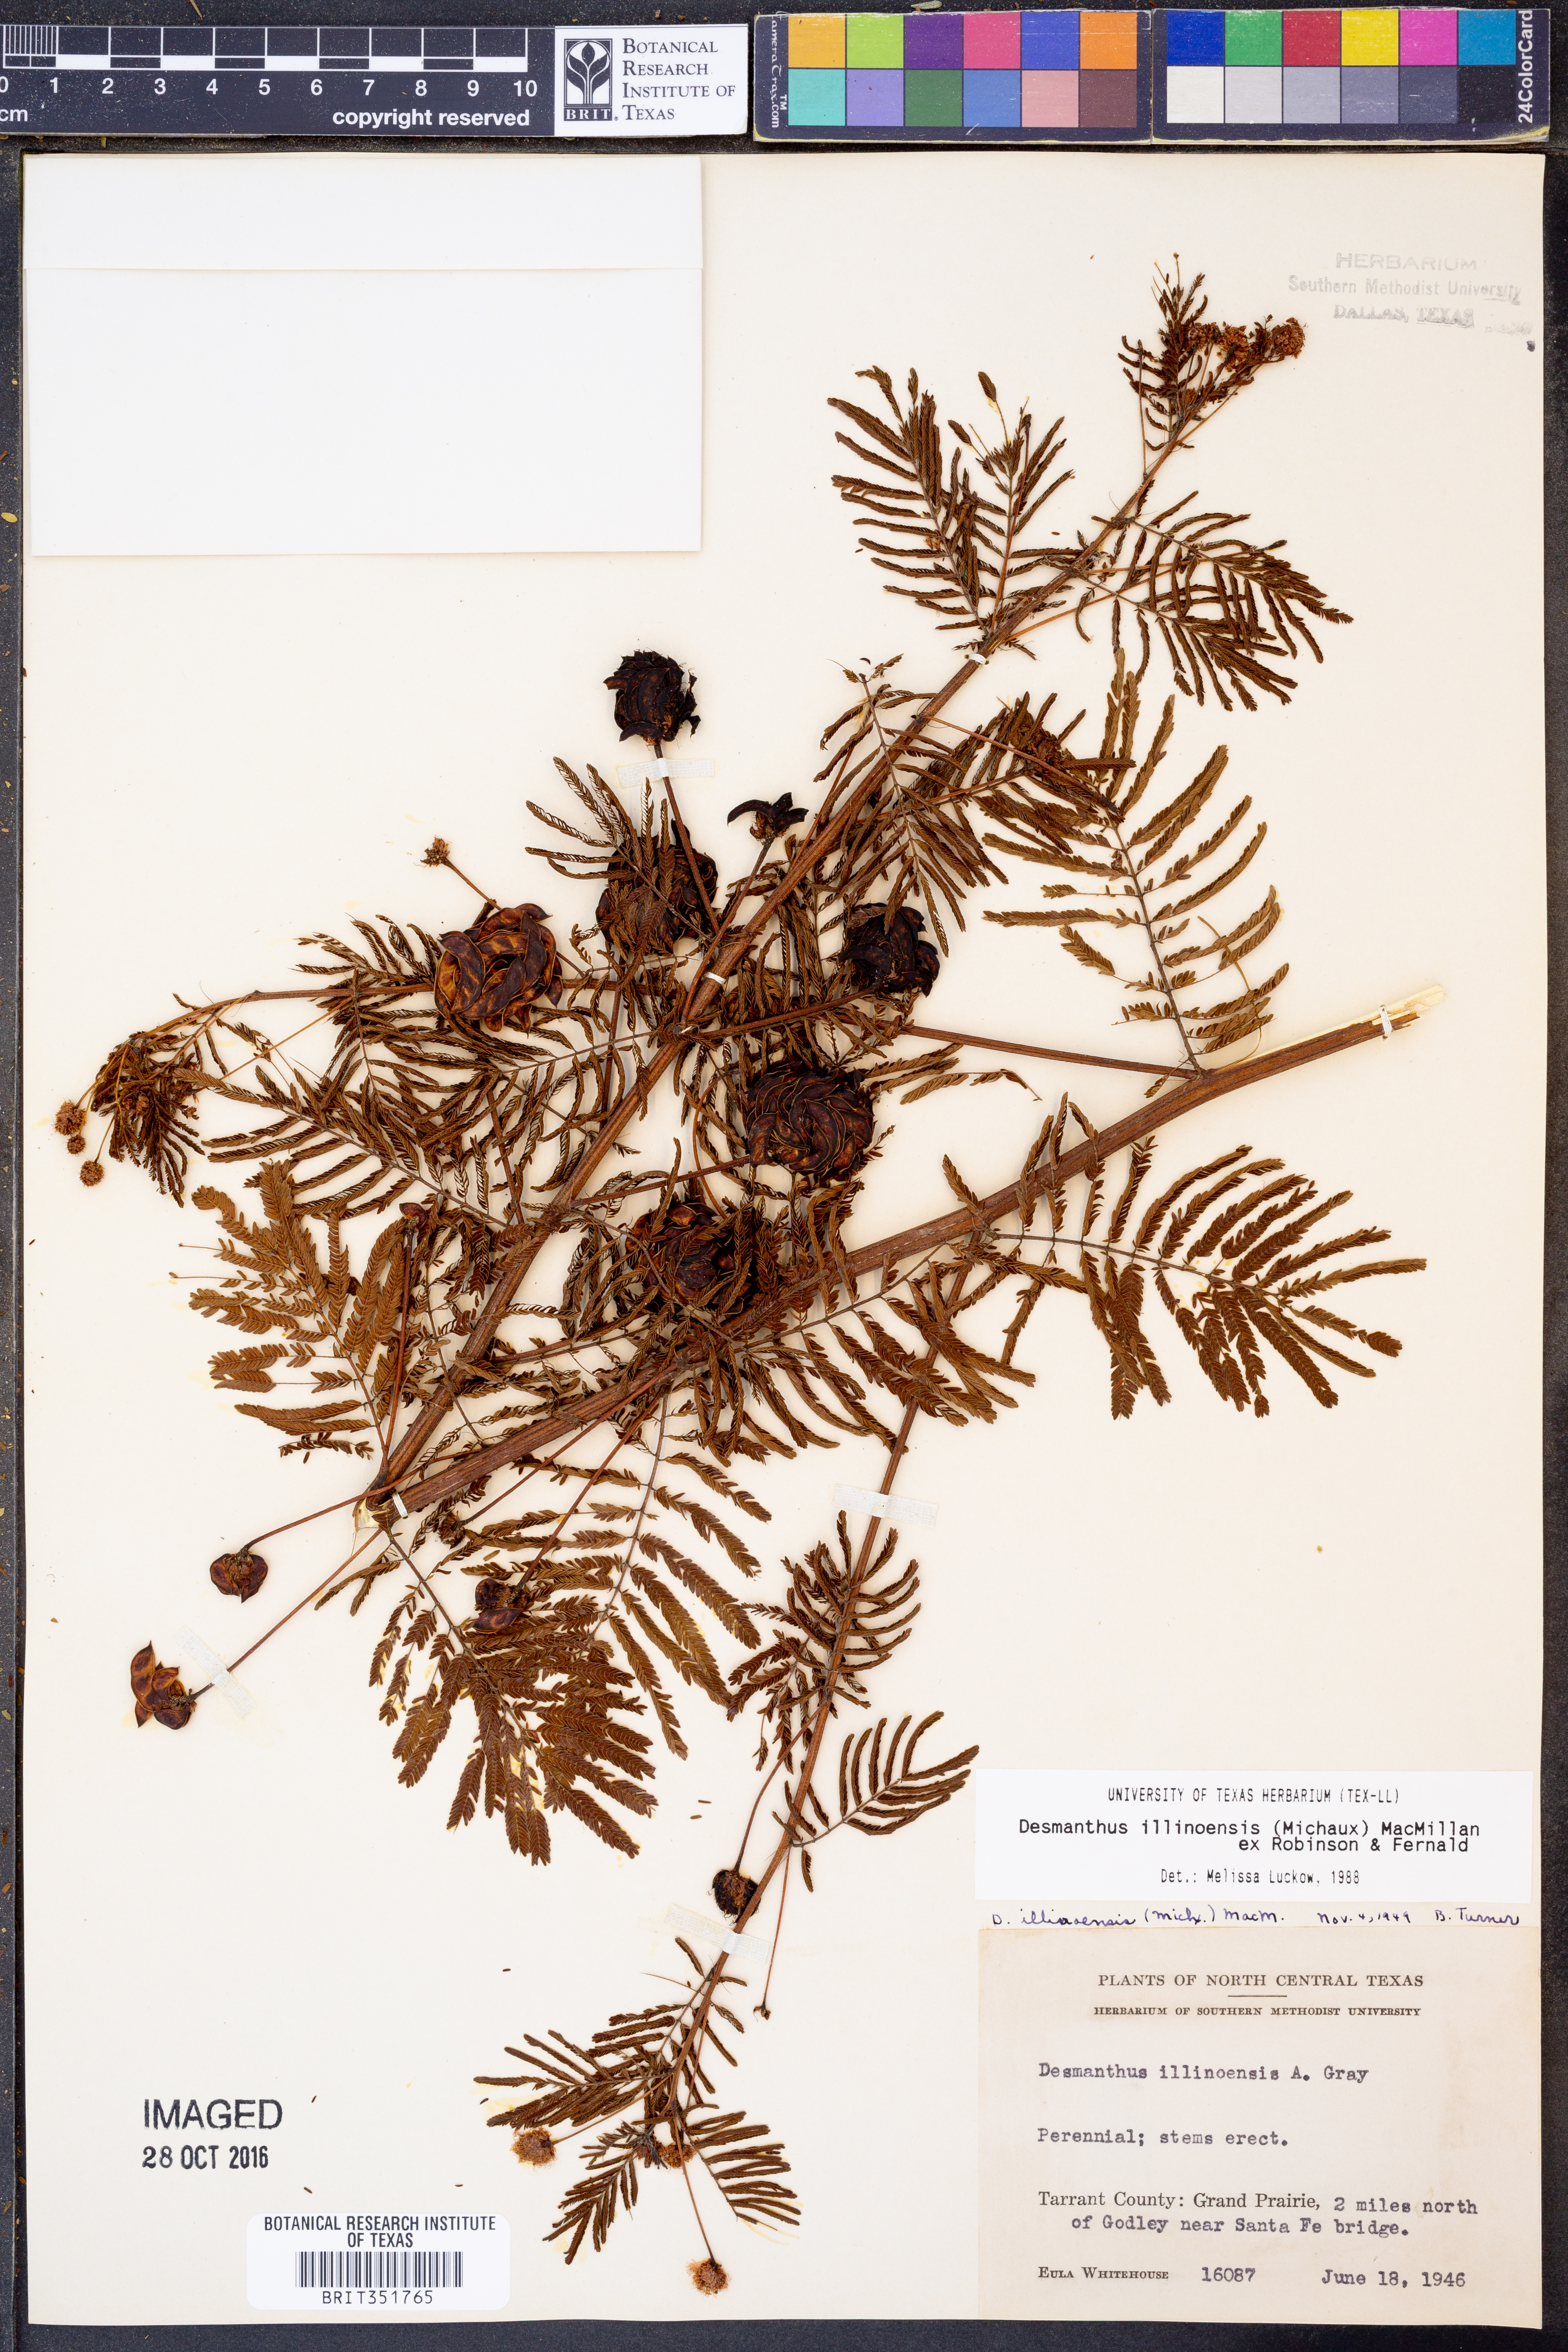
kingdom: Plantae
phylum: Tracheophyta
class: Magnoliopsida
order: Fabales
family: Fabaceae
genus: Desmanthus
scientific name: Desmanthus illinoensis
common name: Illinois bundle-flower
